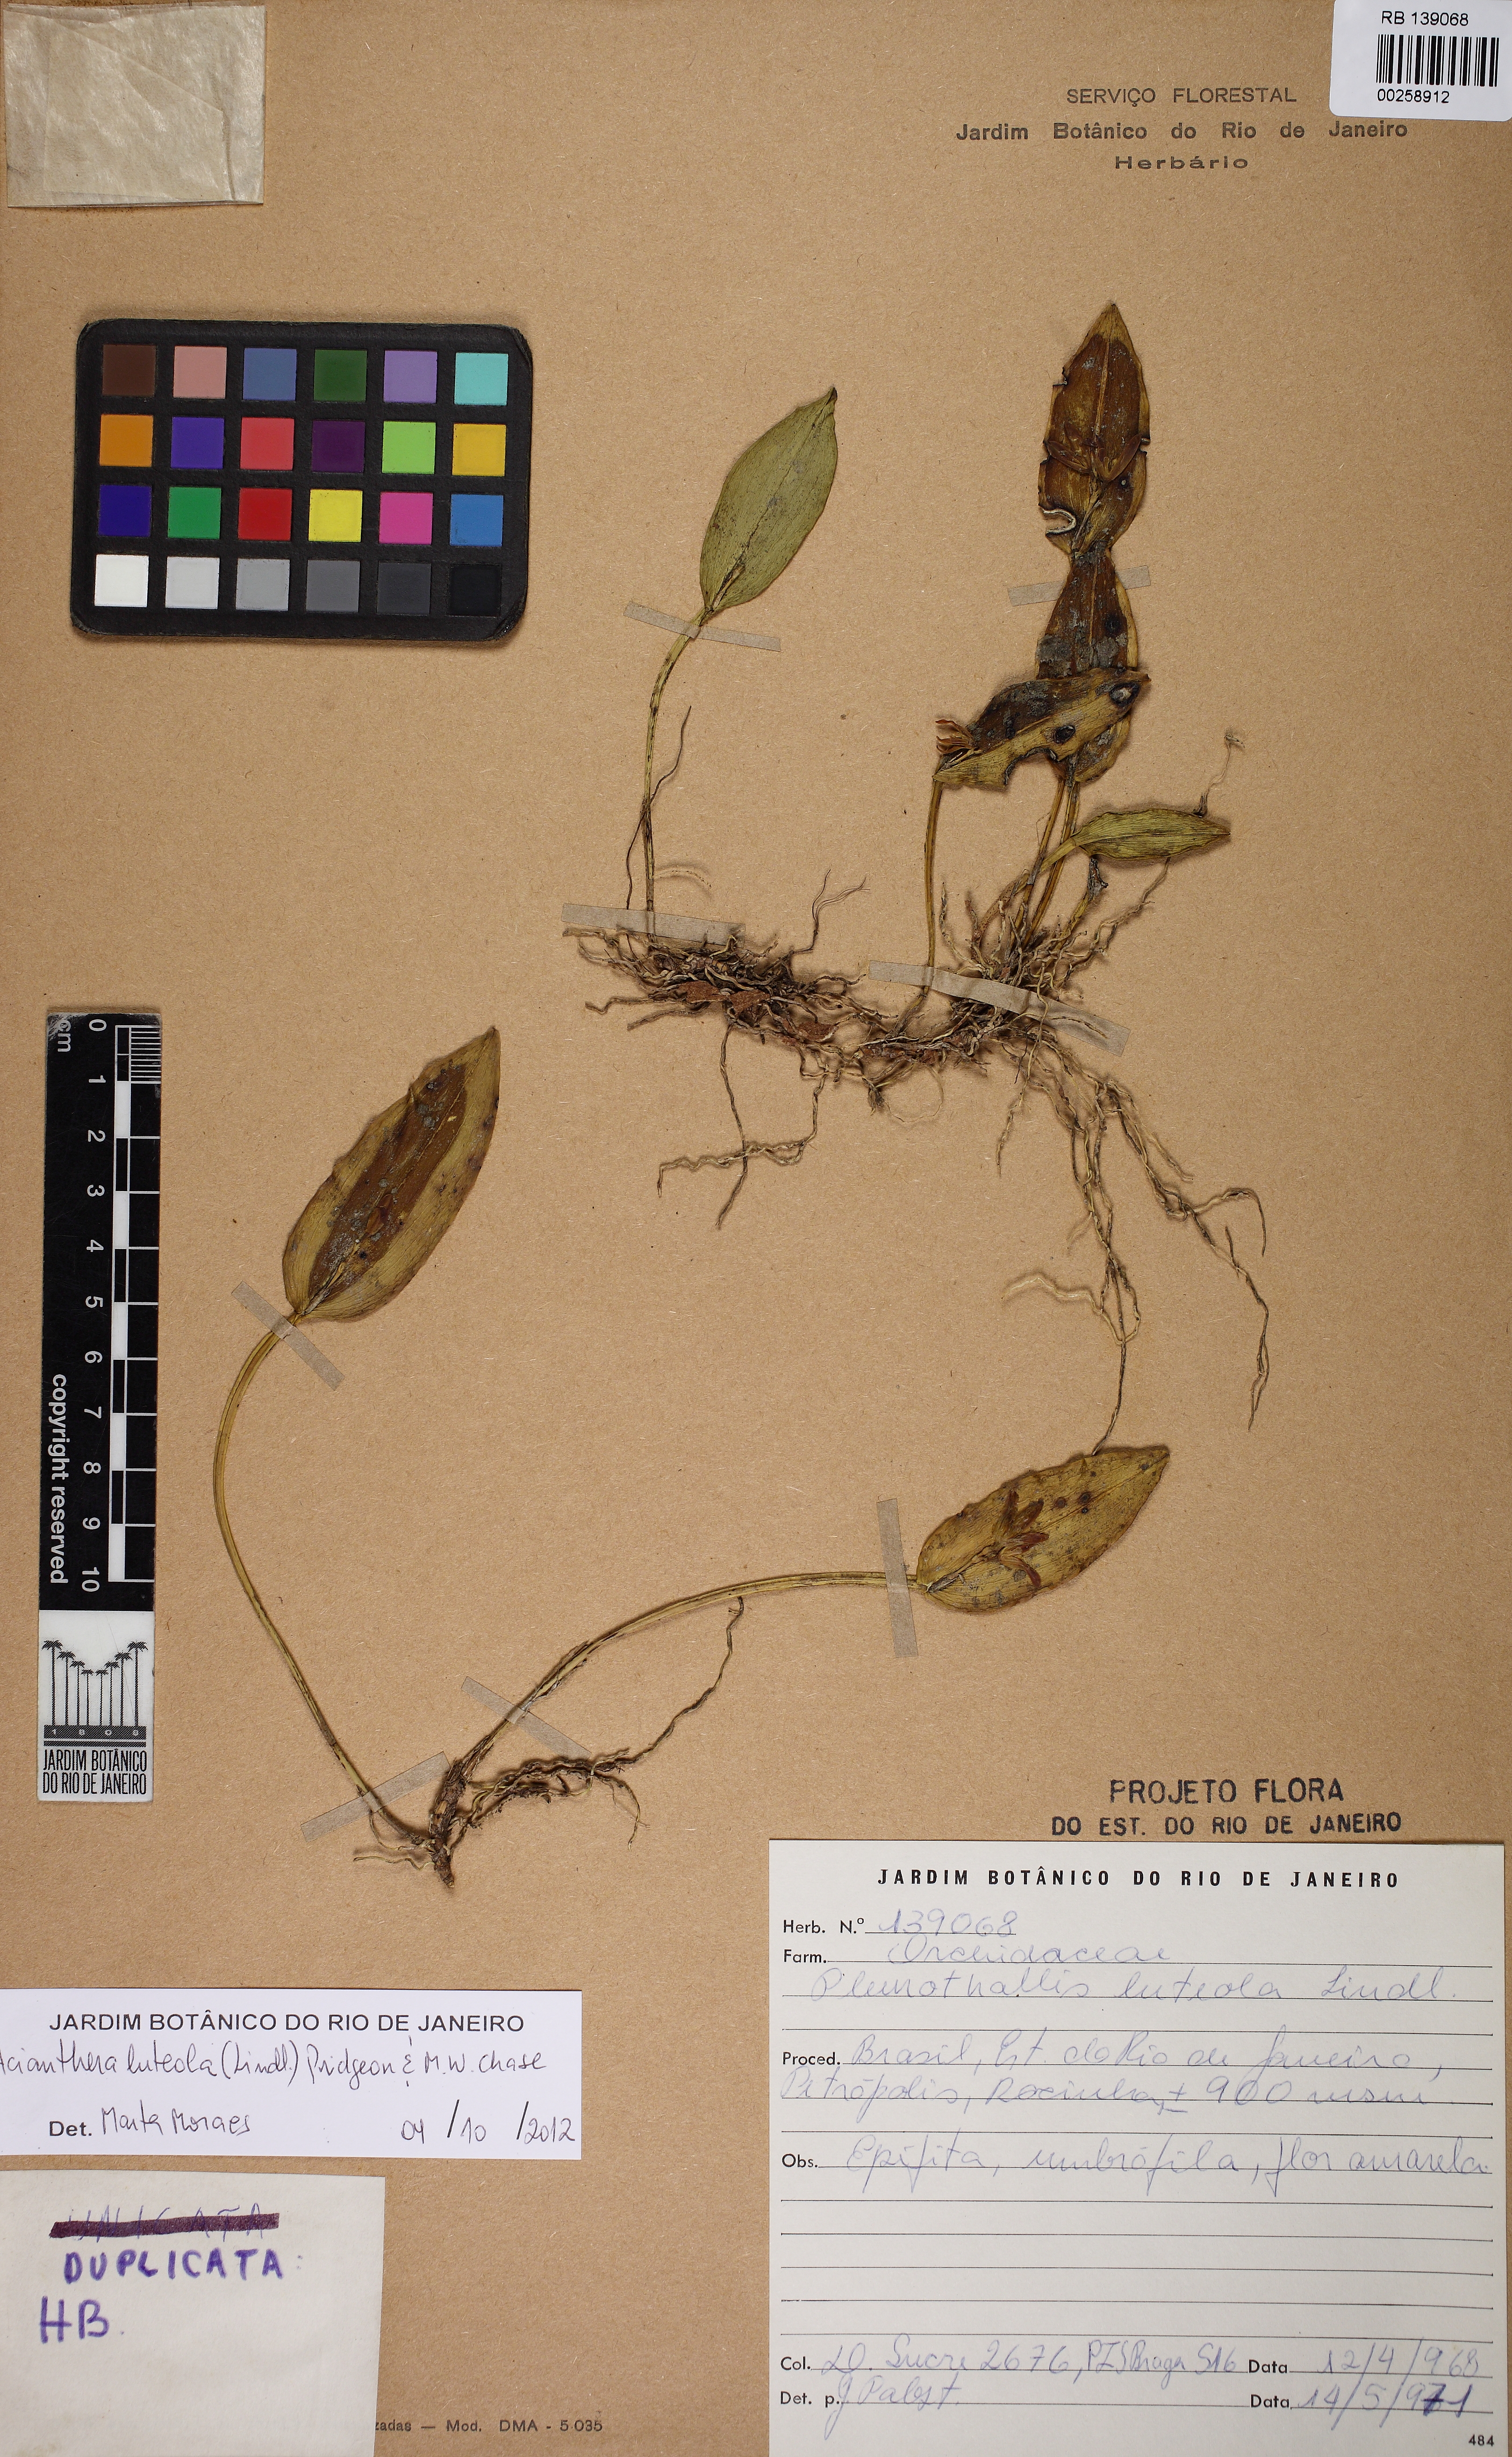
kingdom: Plantae
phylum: Tracheophyta
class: Liliopsida
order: Asparagales
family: Orchidaceae
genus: Acianthera
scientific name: Acianthera luteola
